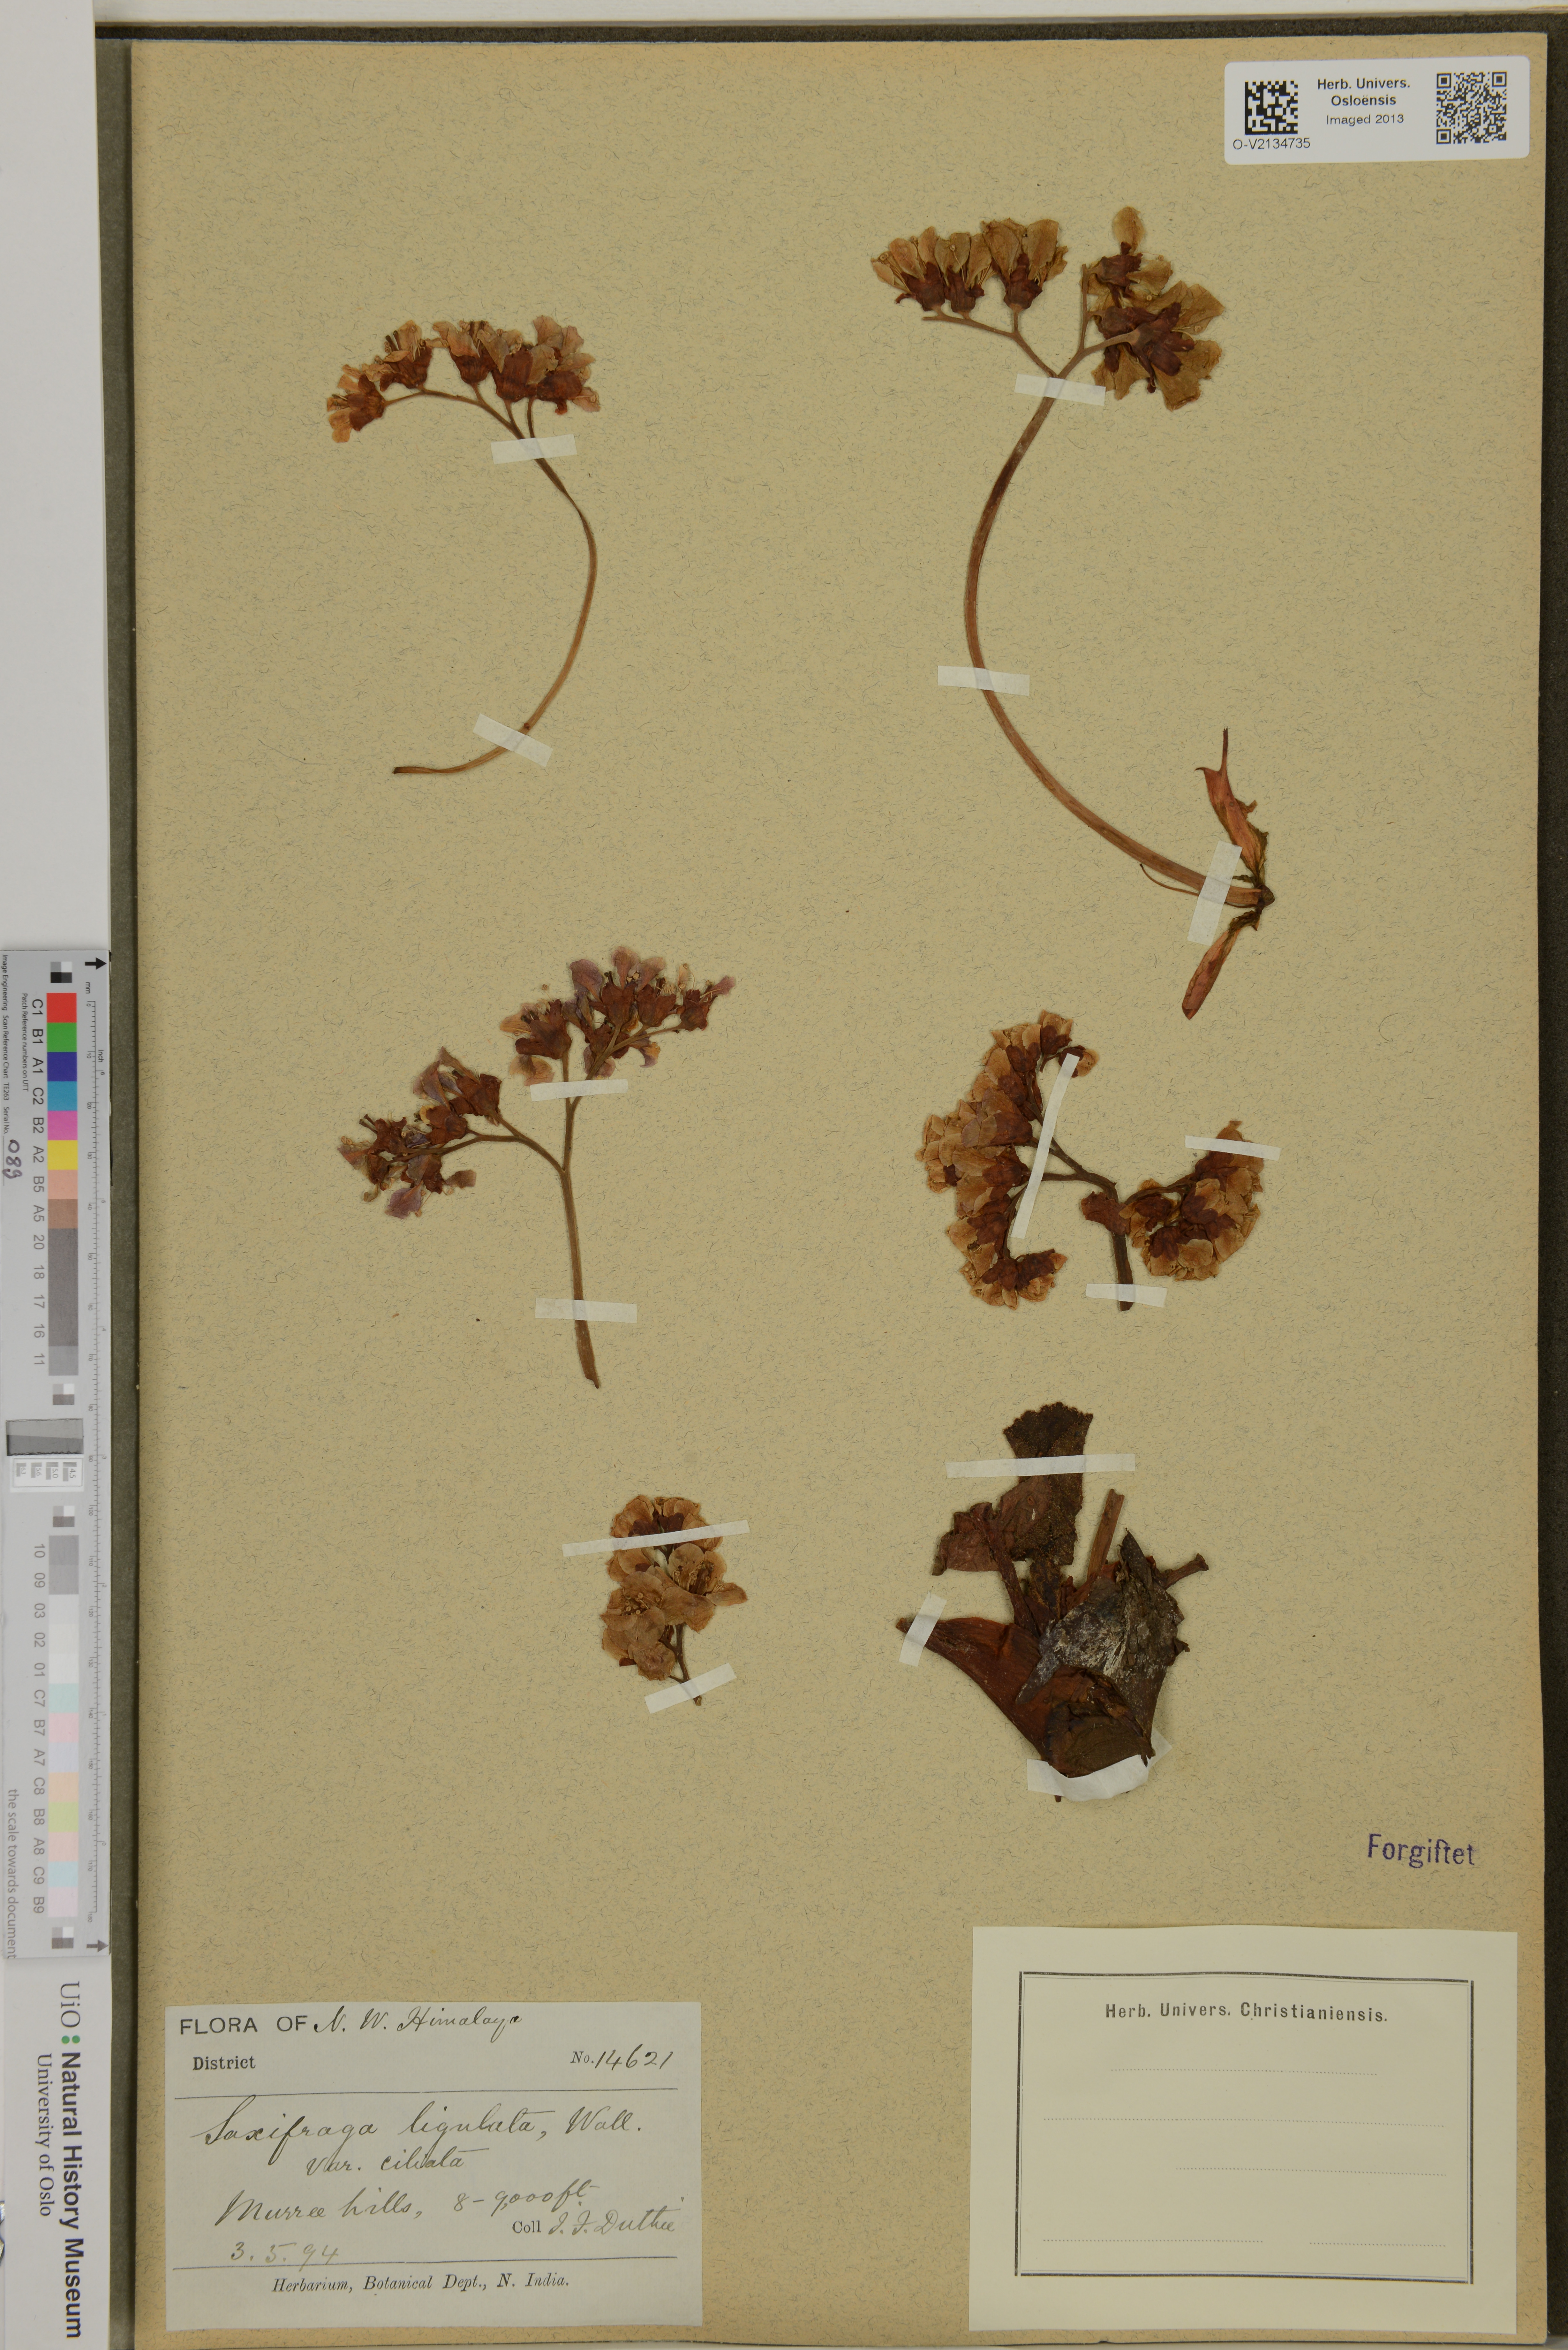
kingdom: Plantae
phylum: Tracheophyta
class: Magnoliopsida
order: Saxifragales
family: Saxifragaceae
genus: Saxifraga
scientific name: Saxifraga stolonifera
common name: Creeping saxifrage
